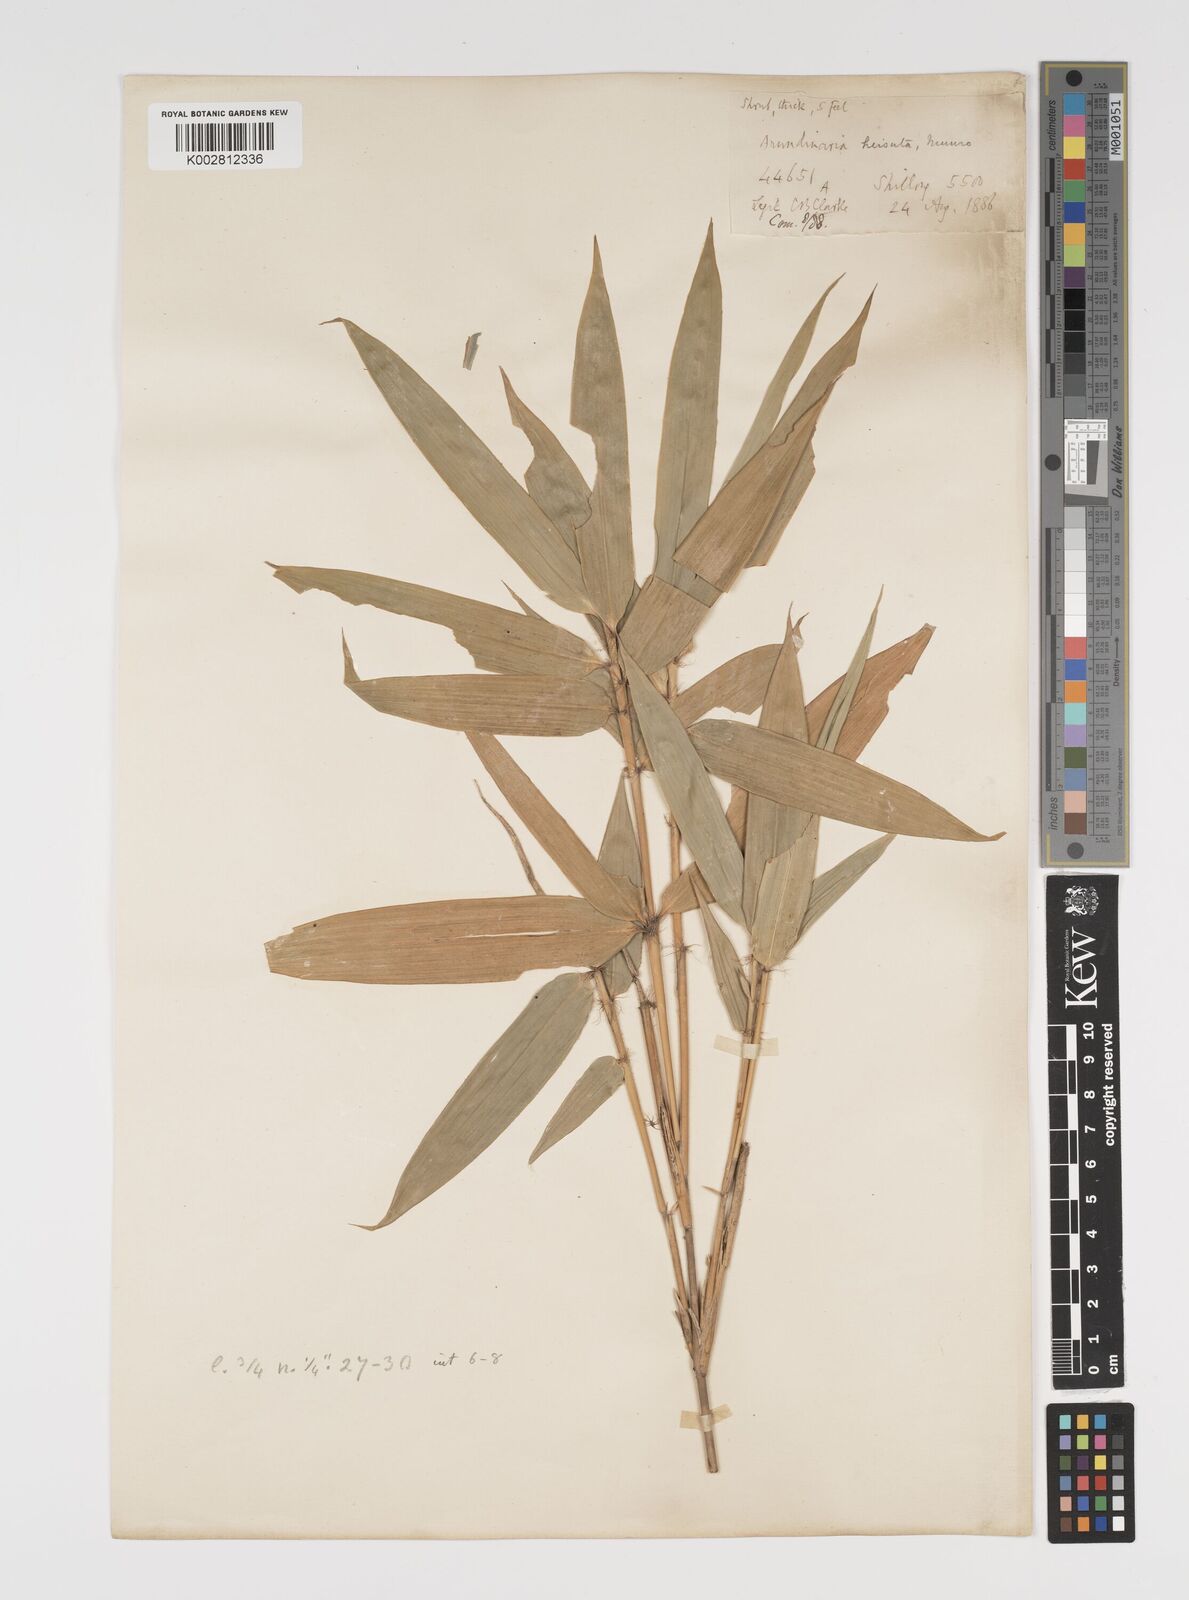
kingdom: Plantae
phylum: Tracheophyta
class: Liliopsida
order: Poales
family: Poaceae
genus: Yushania
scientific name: Yushania hirsuta
